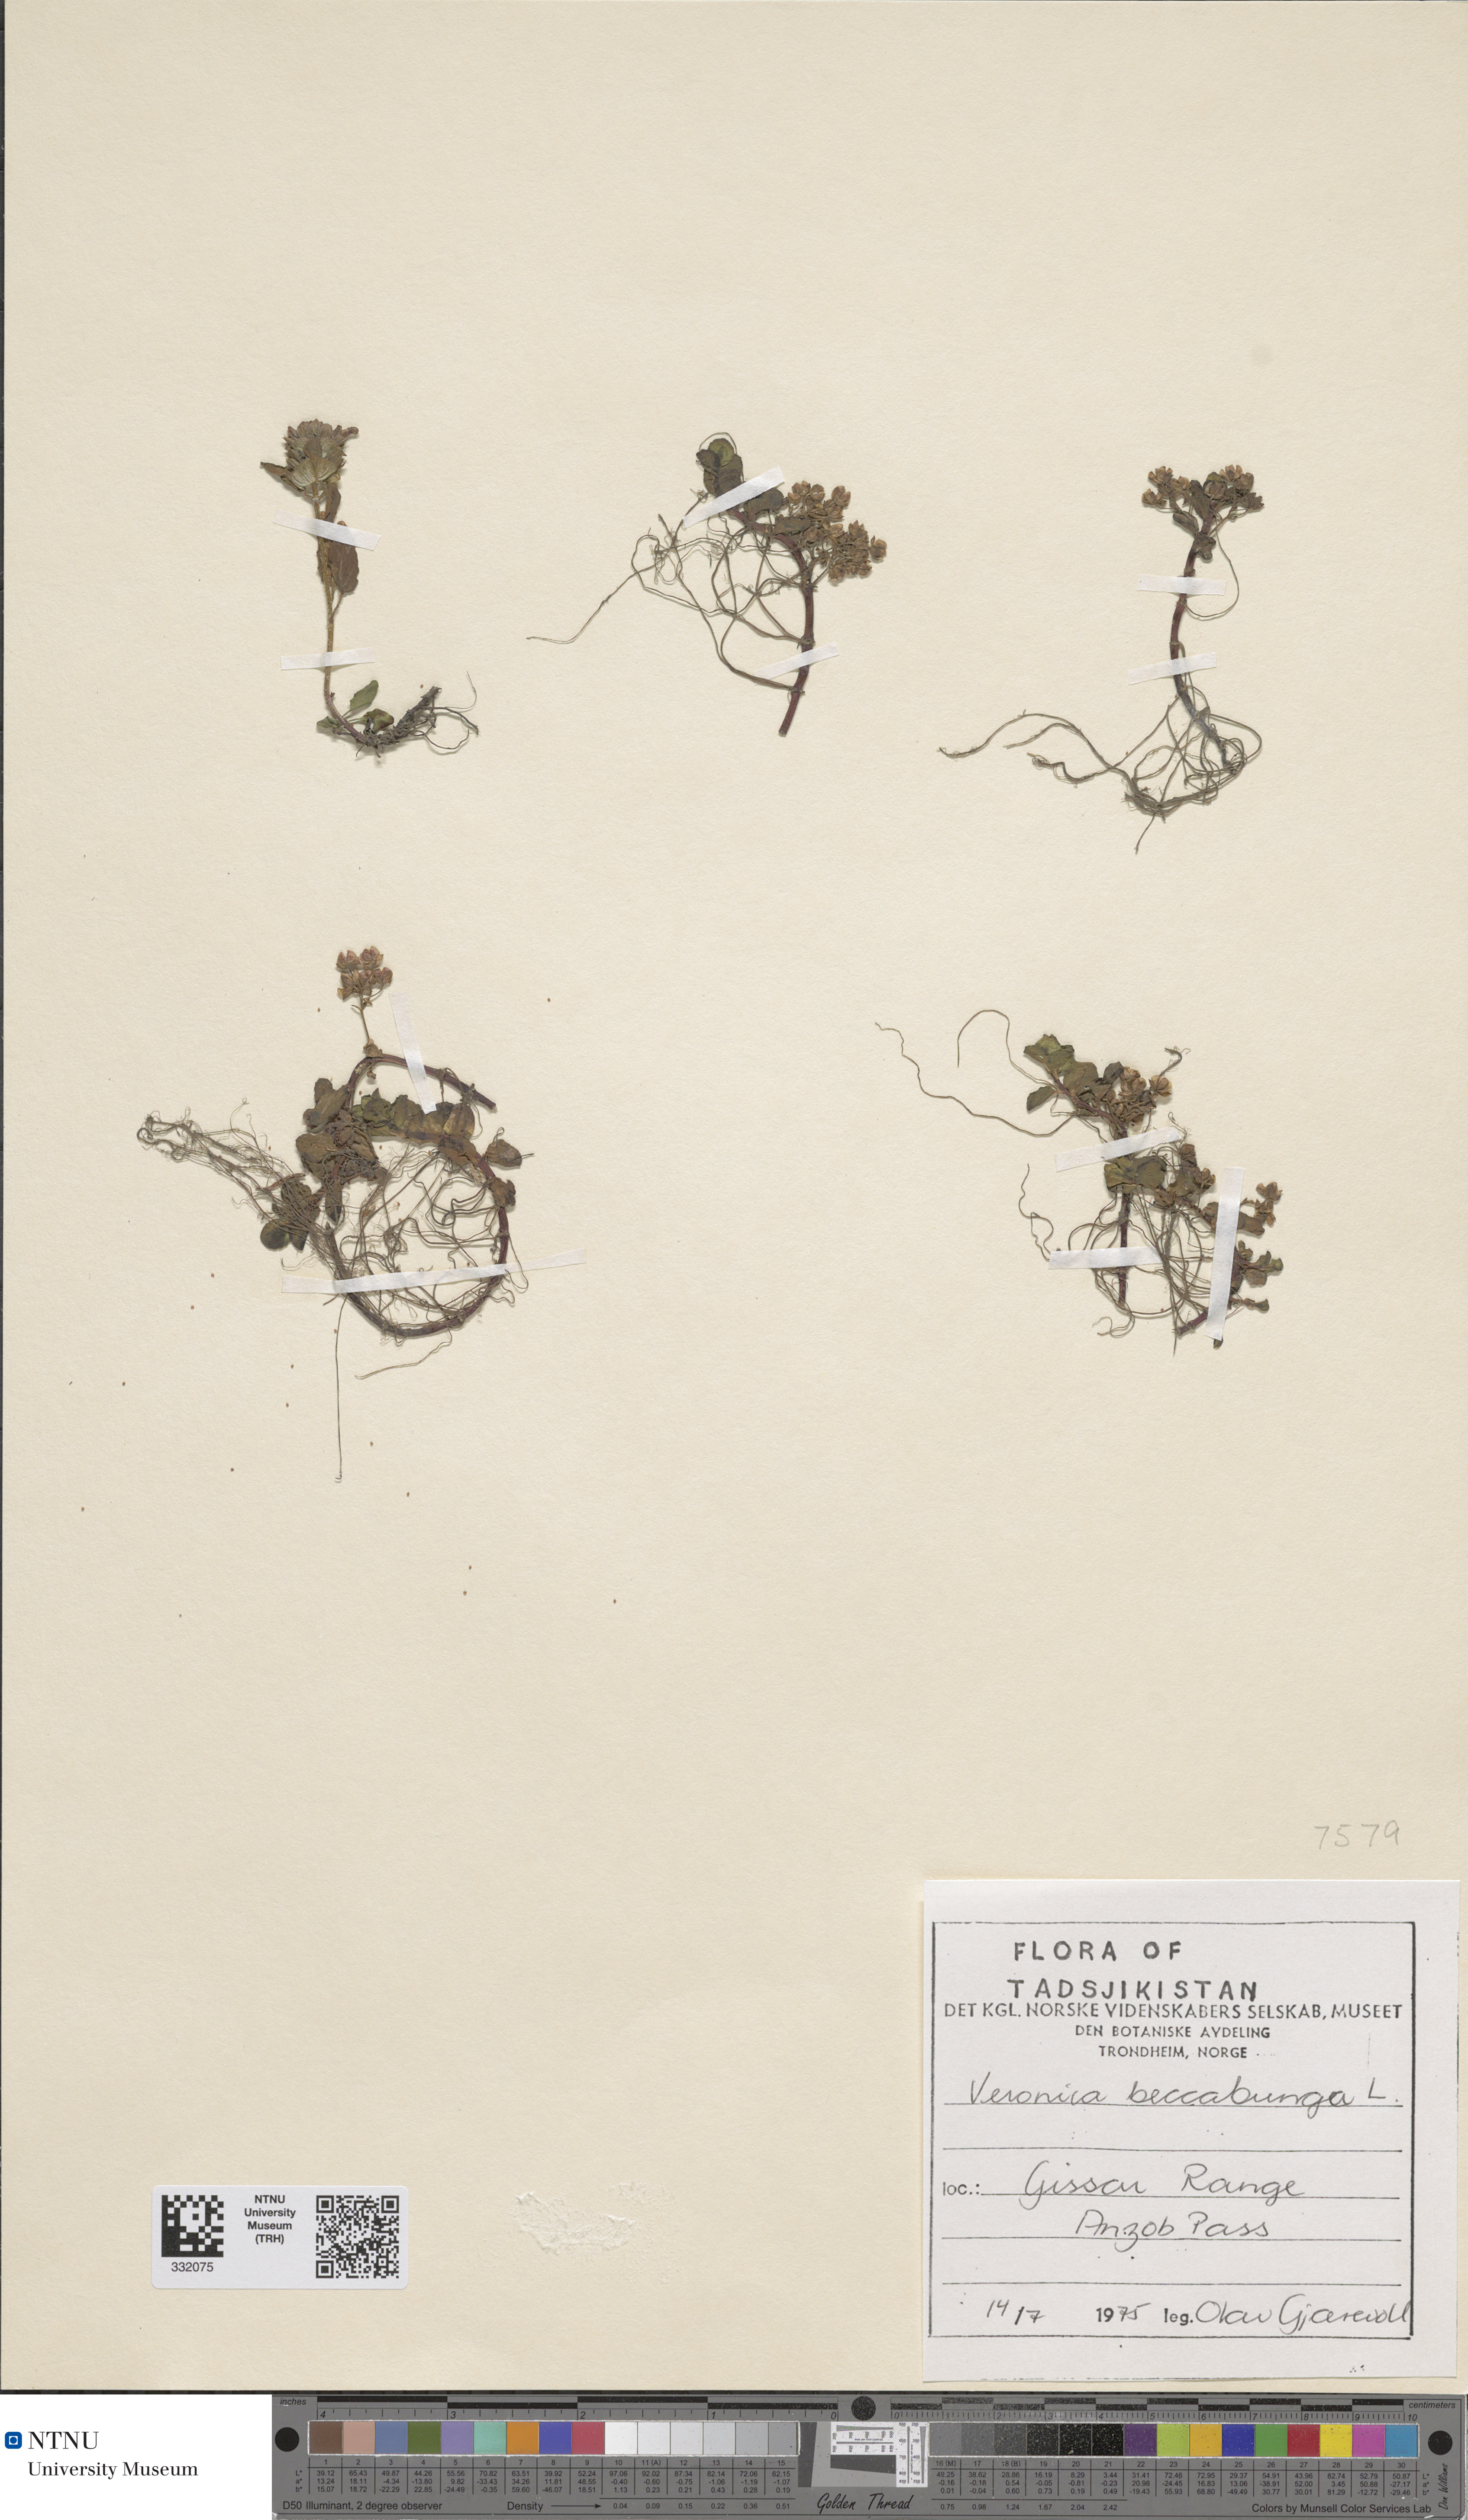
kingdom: Plantae
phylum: Tracheophyta
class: Magnoliopsida
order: Lamiales
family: Plantaginaceae
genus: Veronica
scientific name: Veronica beccabunga
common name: Brooklime
